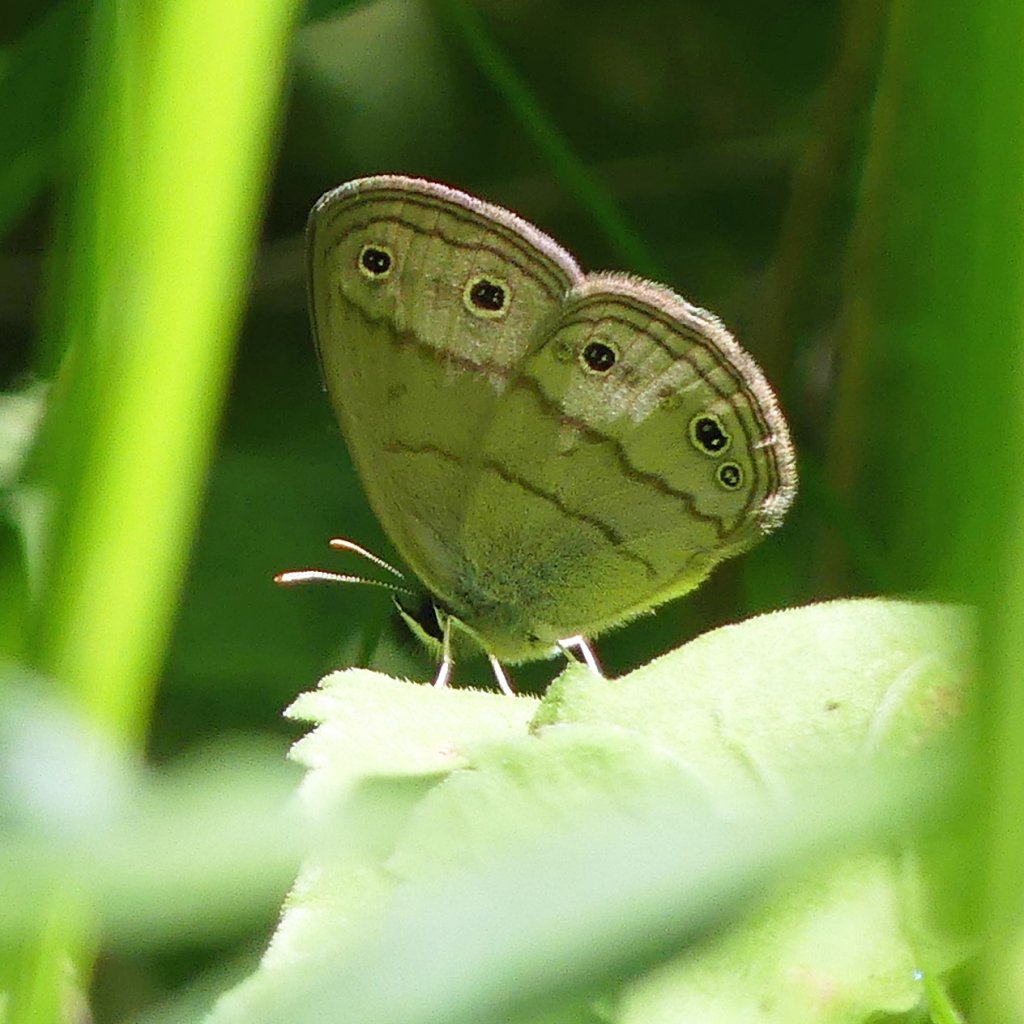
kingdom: Animalia
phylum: Arthropoda
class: Insecta
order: Lepidoptera
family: Nymphalidae
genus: Euptychia
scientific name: Euptychia cymela
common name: Little Wood Satyr
